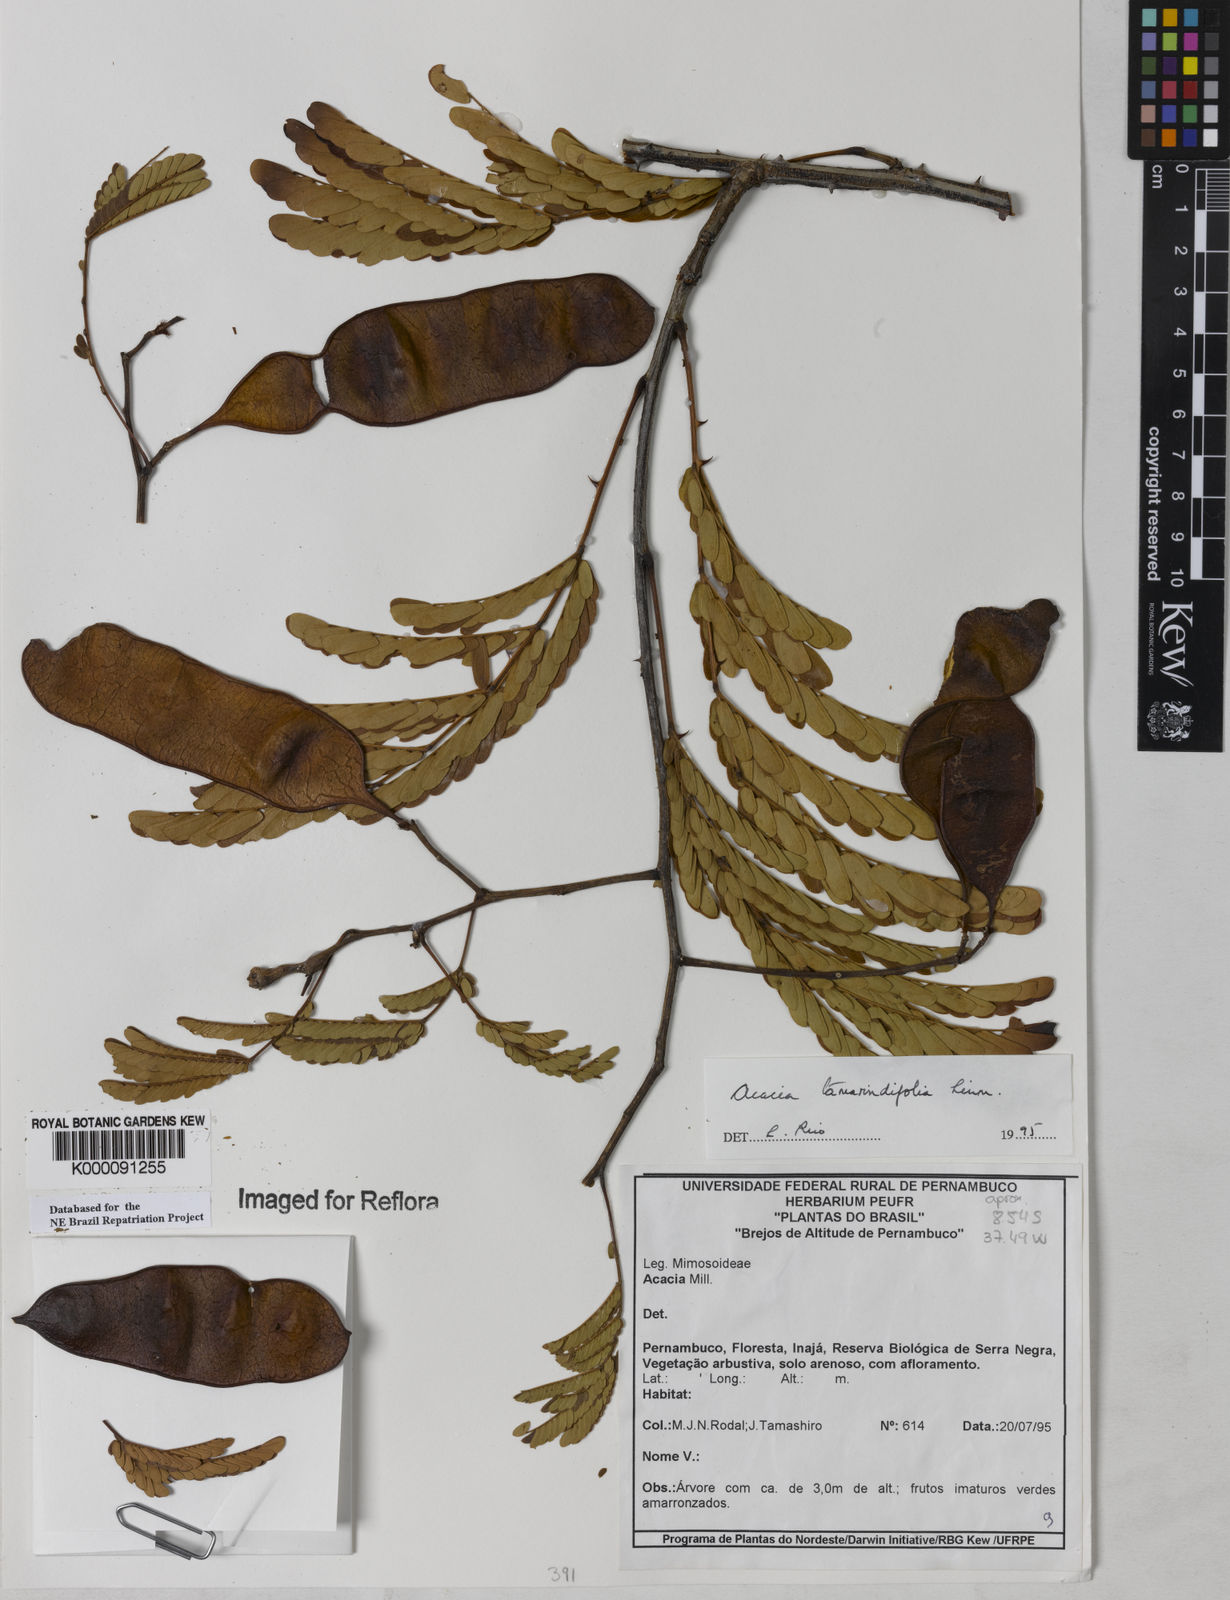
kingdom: Plantae
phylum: Tracheophyta
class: Magnoliopsida
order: Fabales
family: Fabaceae
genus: Senegalia
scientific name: Senegalia tamarindifolia
